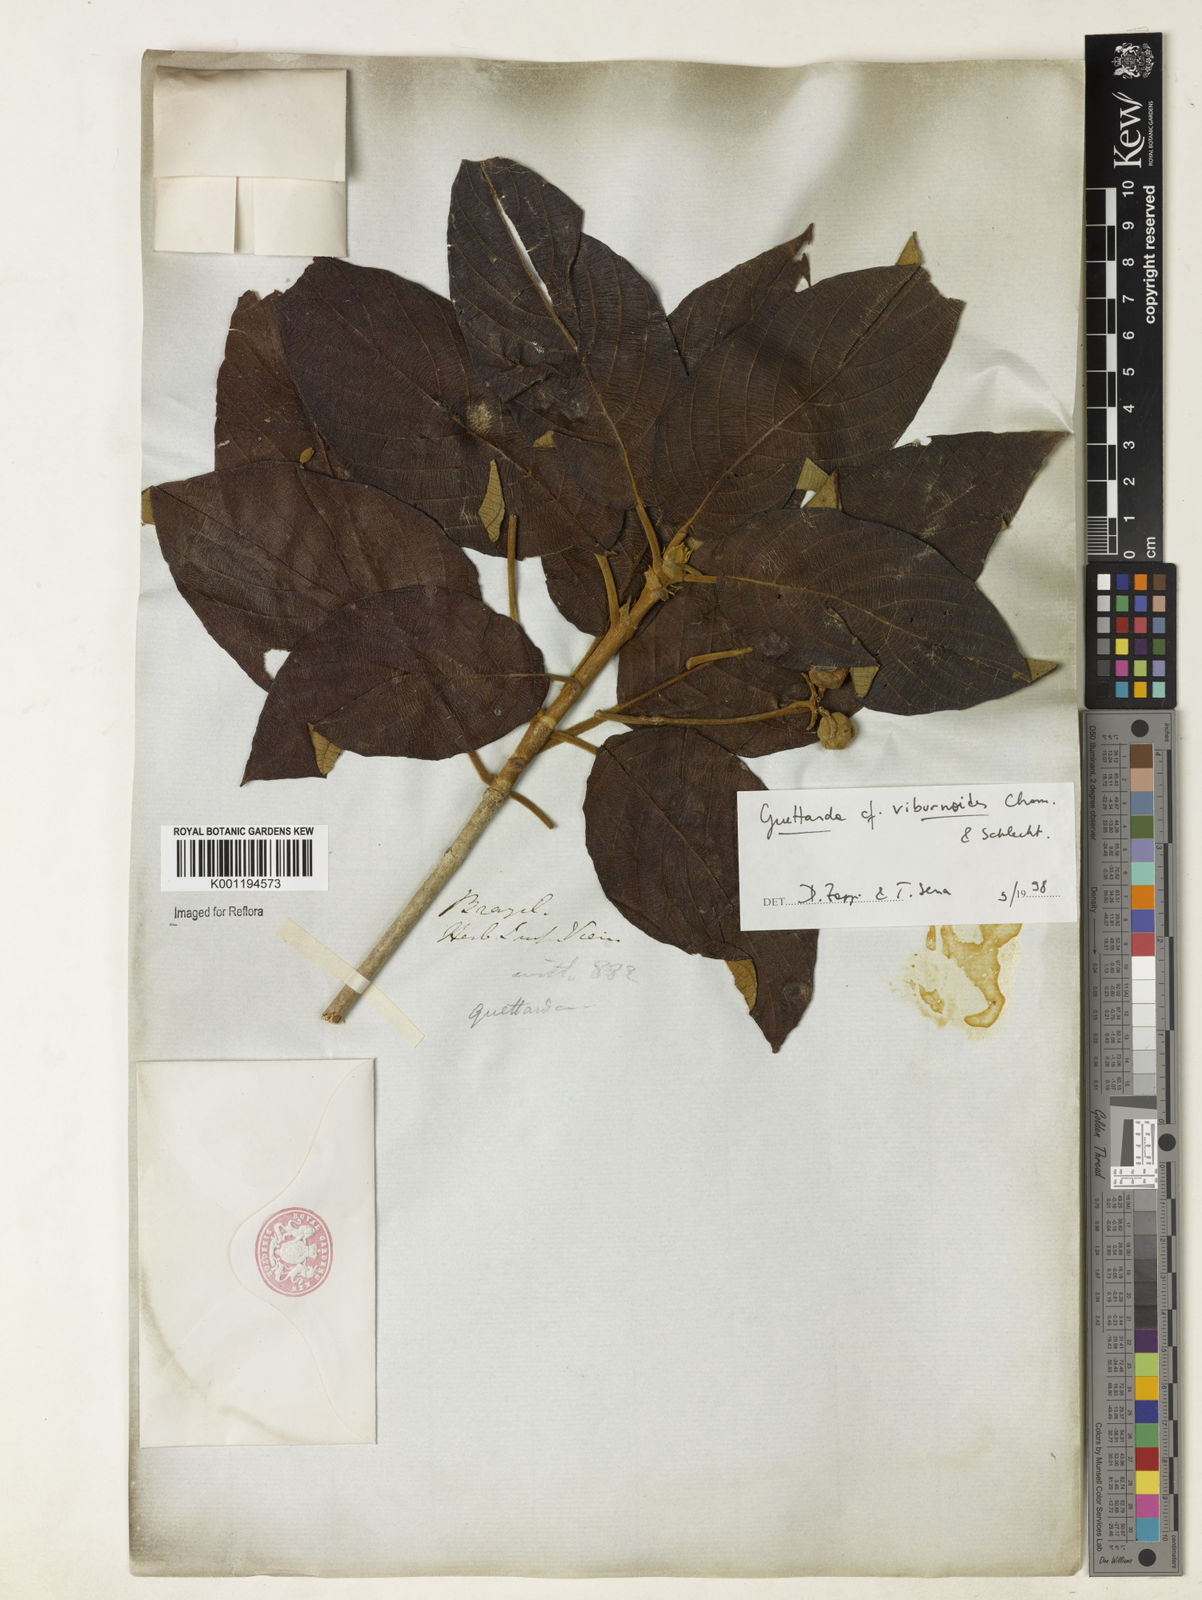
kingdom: Plantae
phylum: Tracheophyta
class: Magnoliopsida
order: Gentianales
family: Rubiaceae
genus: Guettarda
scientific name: Guettarda viburnoides
